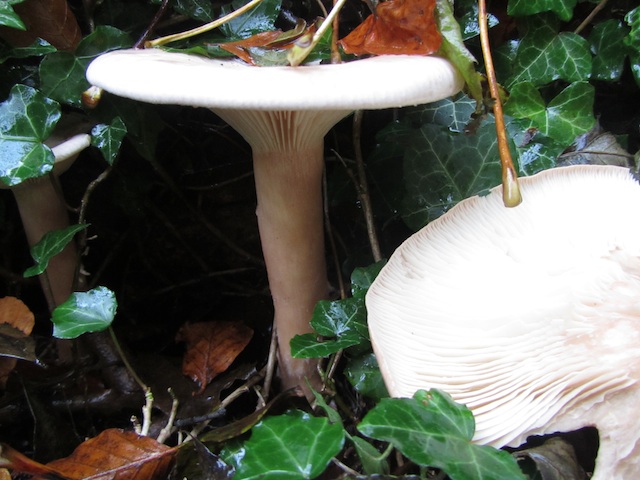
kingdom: Fungi
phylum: Basidiomycota
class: Agaricomycetes
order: Agaricales
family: Tricholomataceae
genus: Infundibulicybe
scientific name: Infundibulicybe geotropa
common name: stor tragthat
